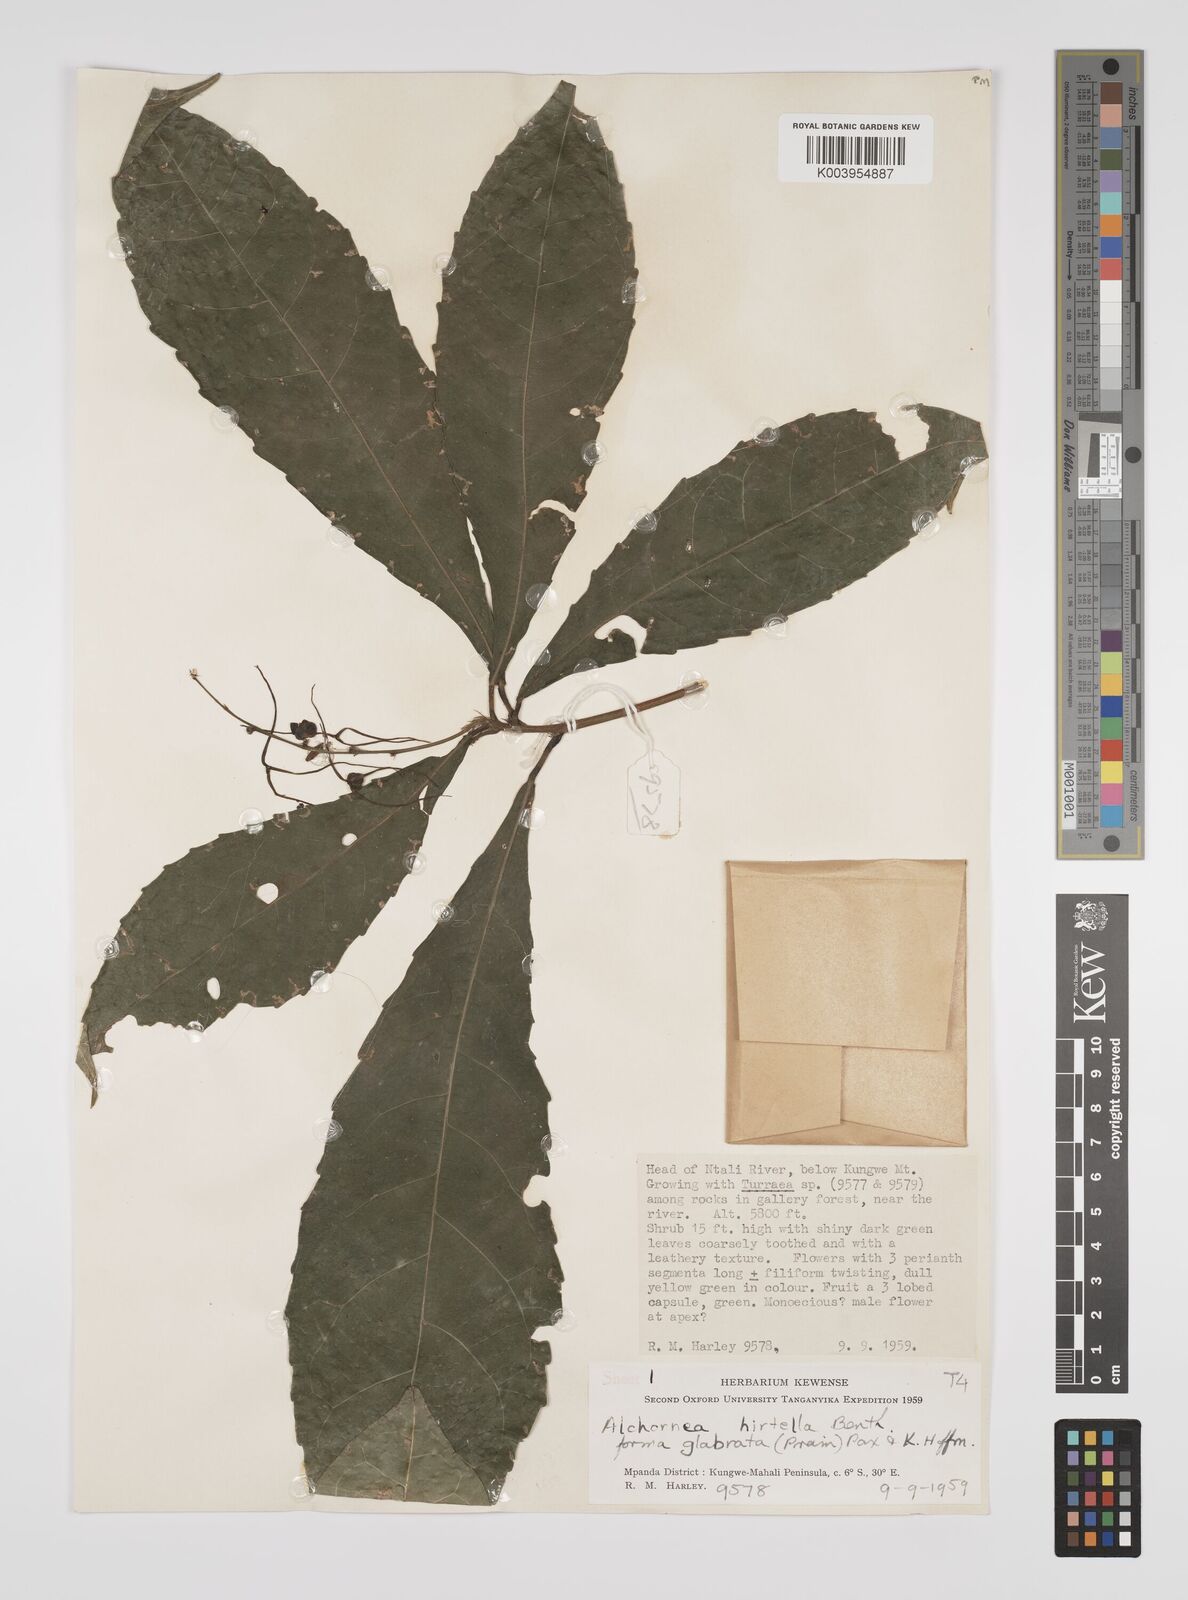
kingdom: Plantae
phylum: Tracheophyta
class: Magnoliopsida
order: Malpighiales
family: Euphorbiaceae
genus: Alchornea
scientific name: Alchornea hirtella
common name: Forest bead-string
